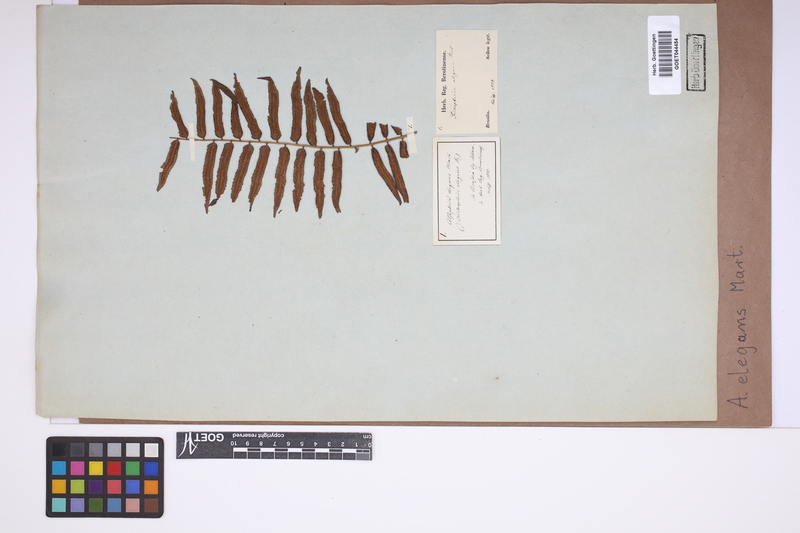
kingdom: Plantae
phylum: Tracheophyta
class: Polypodiopsida
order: Cyatheales
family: Cyatheaceae
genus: Cyathea
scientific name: Cyathea corcovadensis
